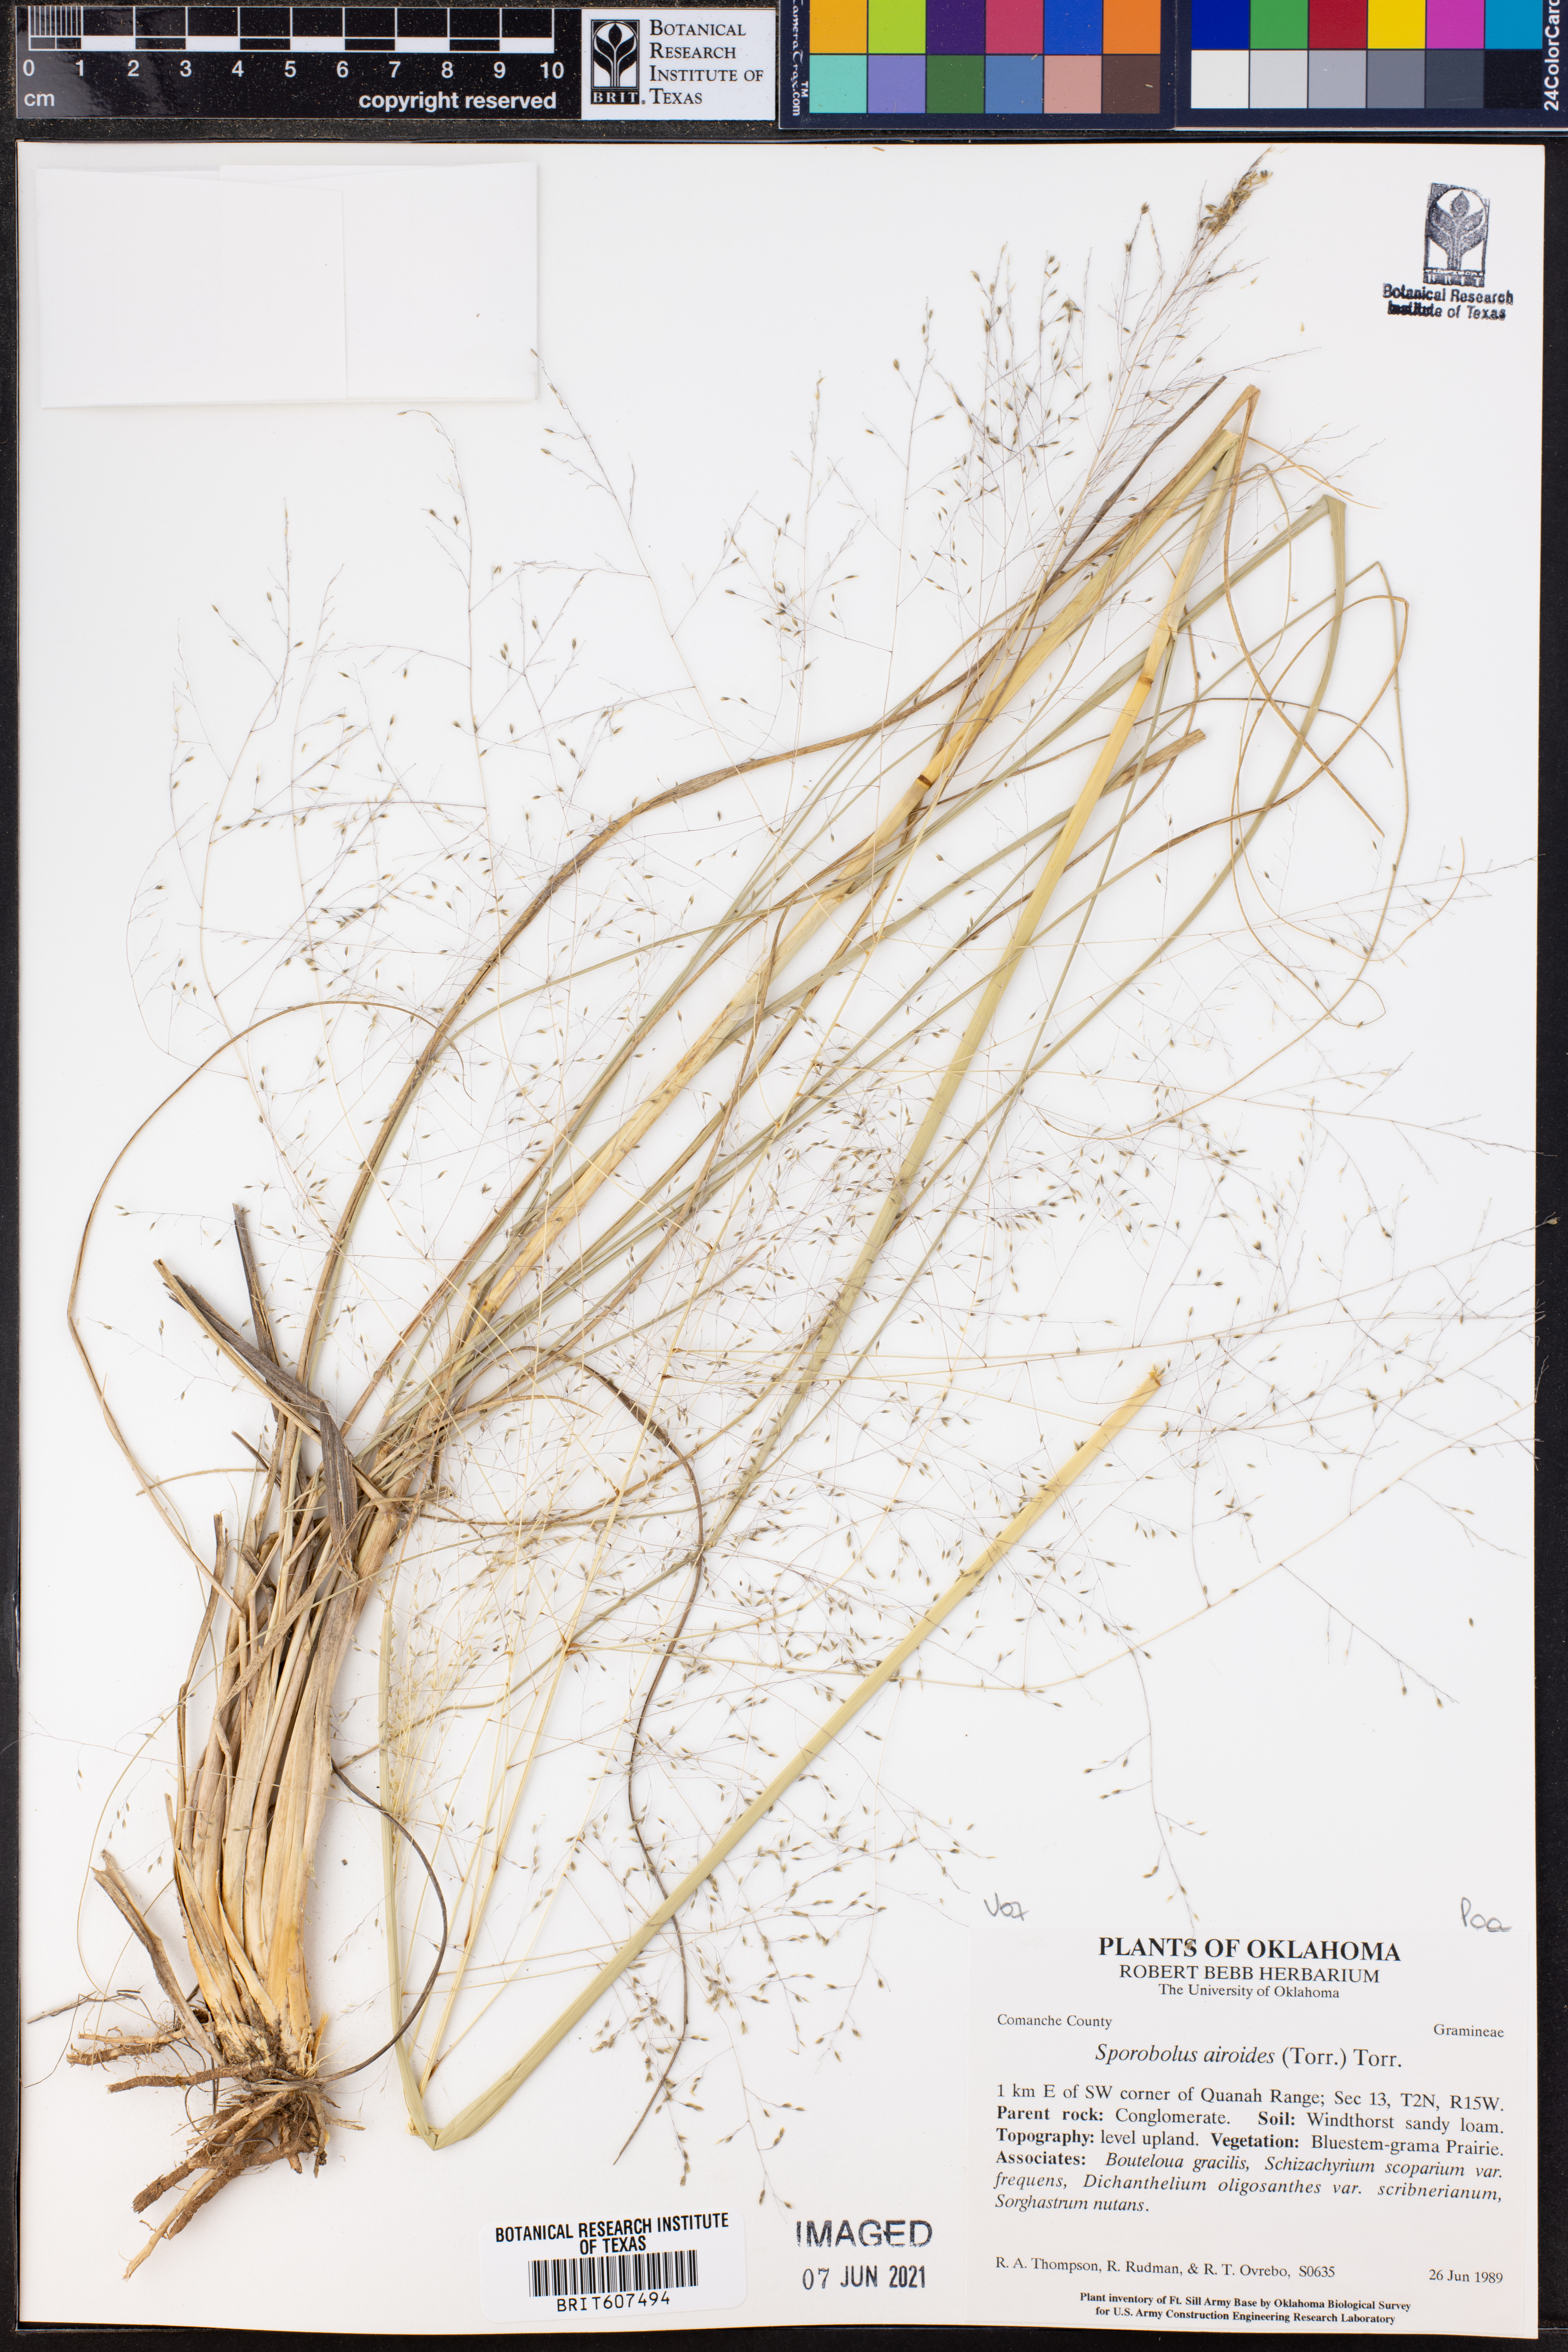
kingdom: Plantae
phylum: Tracheophyta
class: Liliopsida
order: Poales
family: Poaceae
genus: Sporobolus
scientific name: Sporobolus airoides
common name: Alkali sacaton
